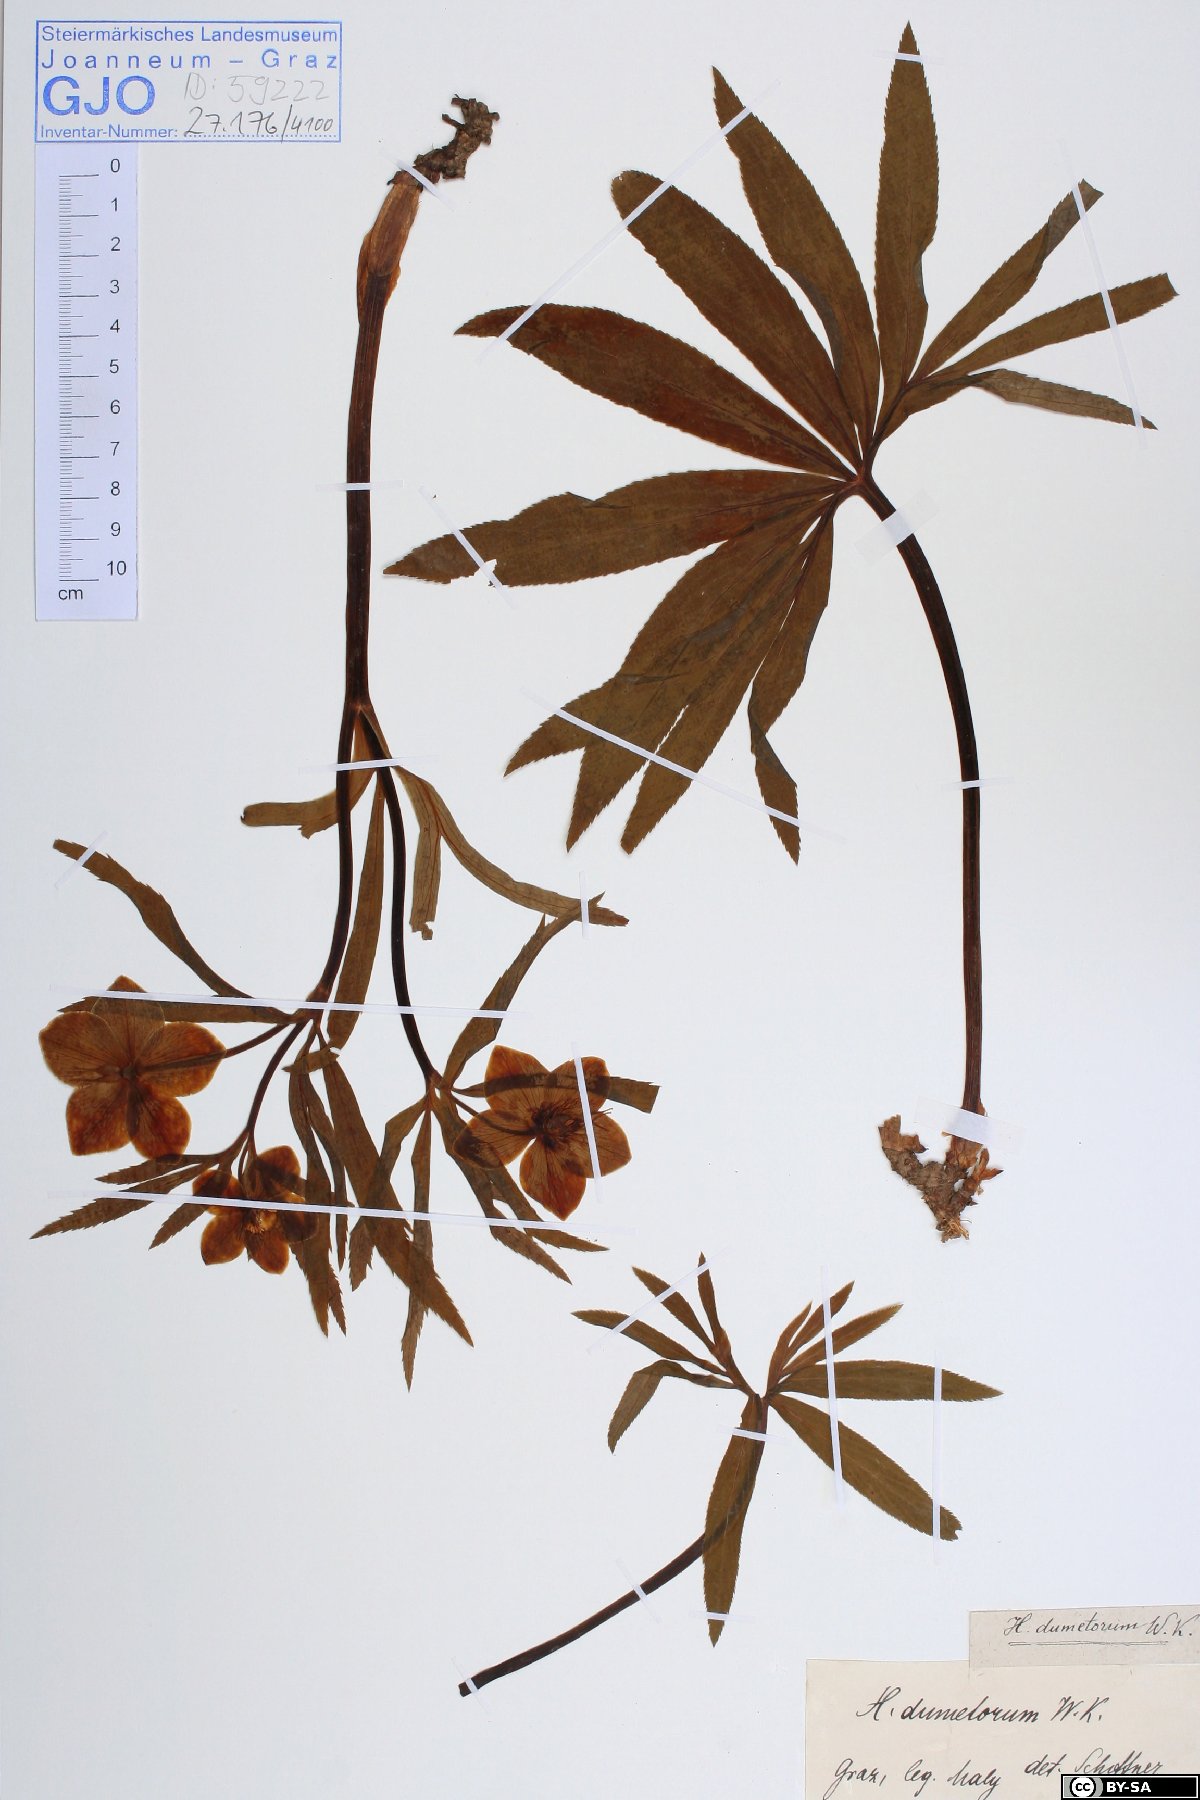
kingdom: Plantae
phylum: Tracheophyta
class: Magnoliopsida
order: Ranunculales
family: Ranunculaceae
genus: Helleborus
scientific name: Helleborus dumetorum
